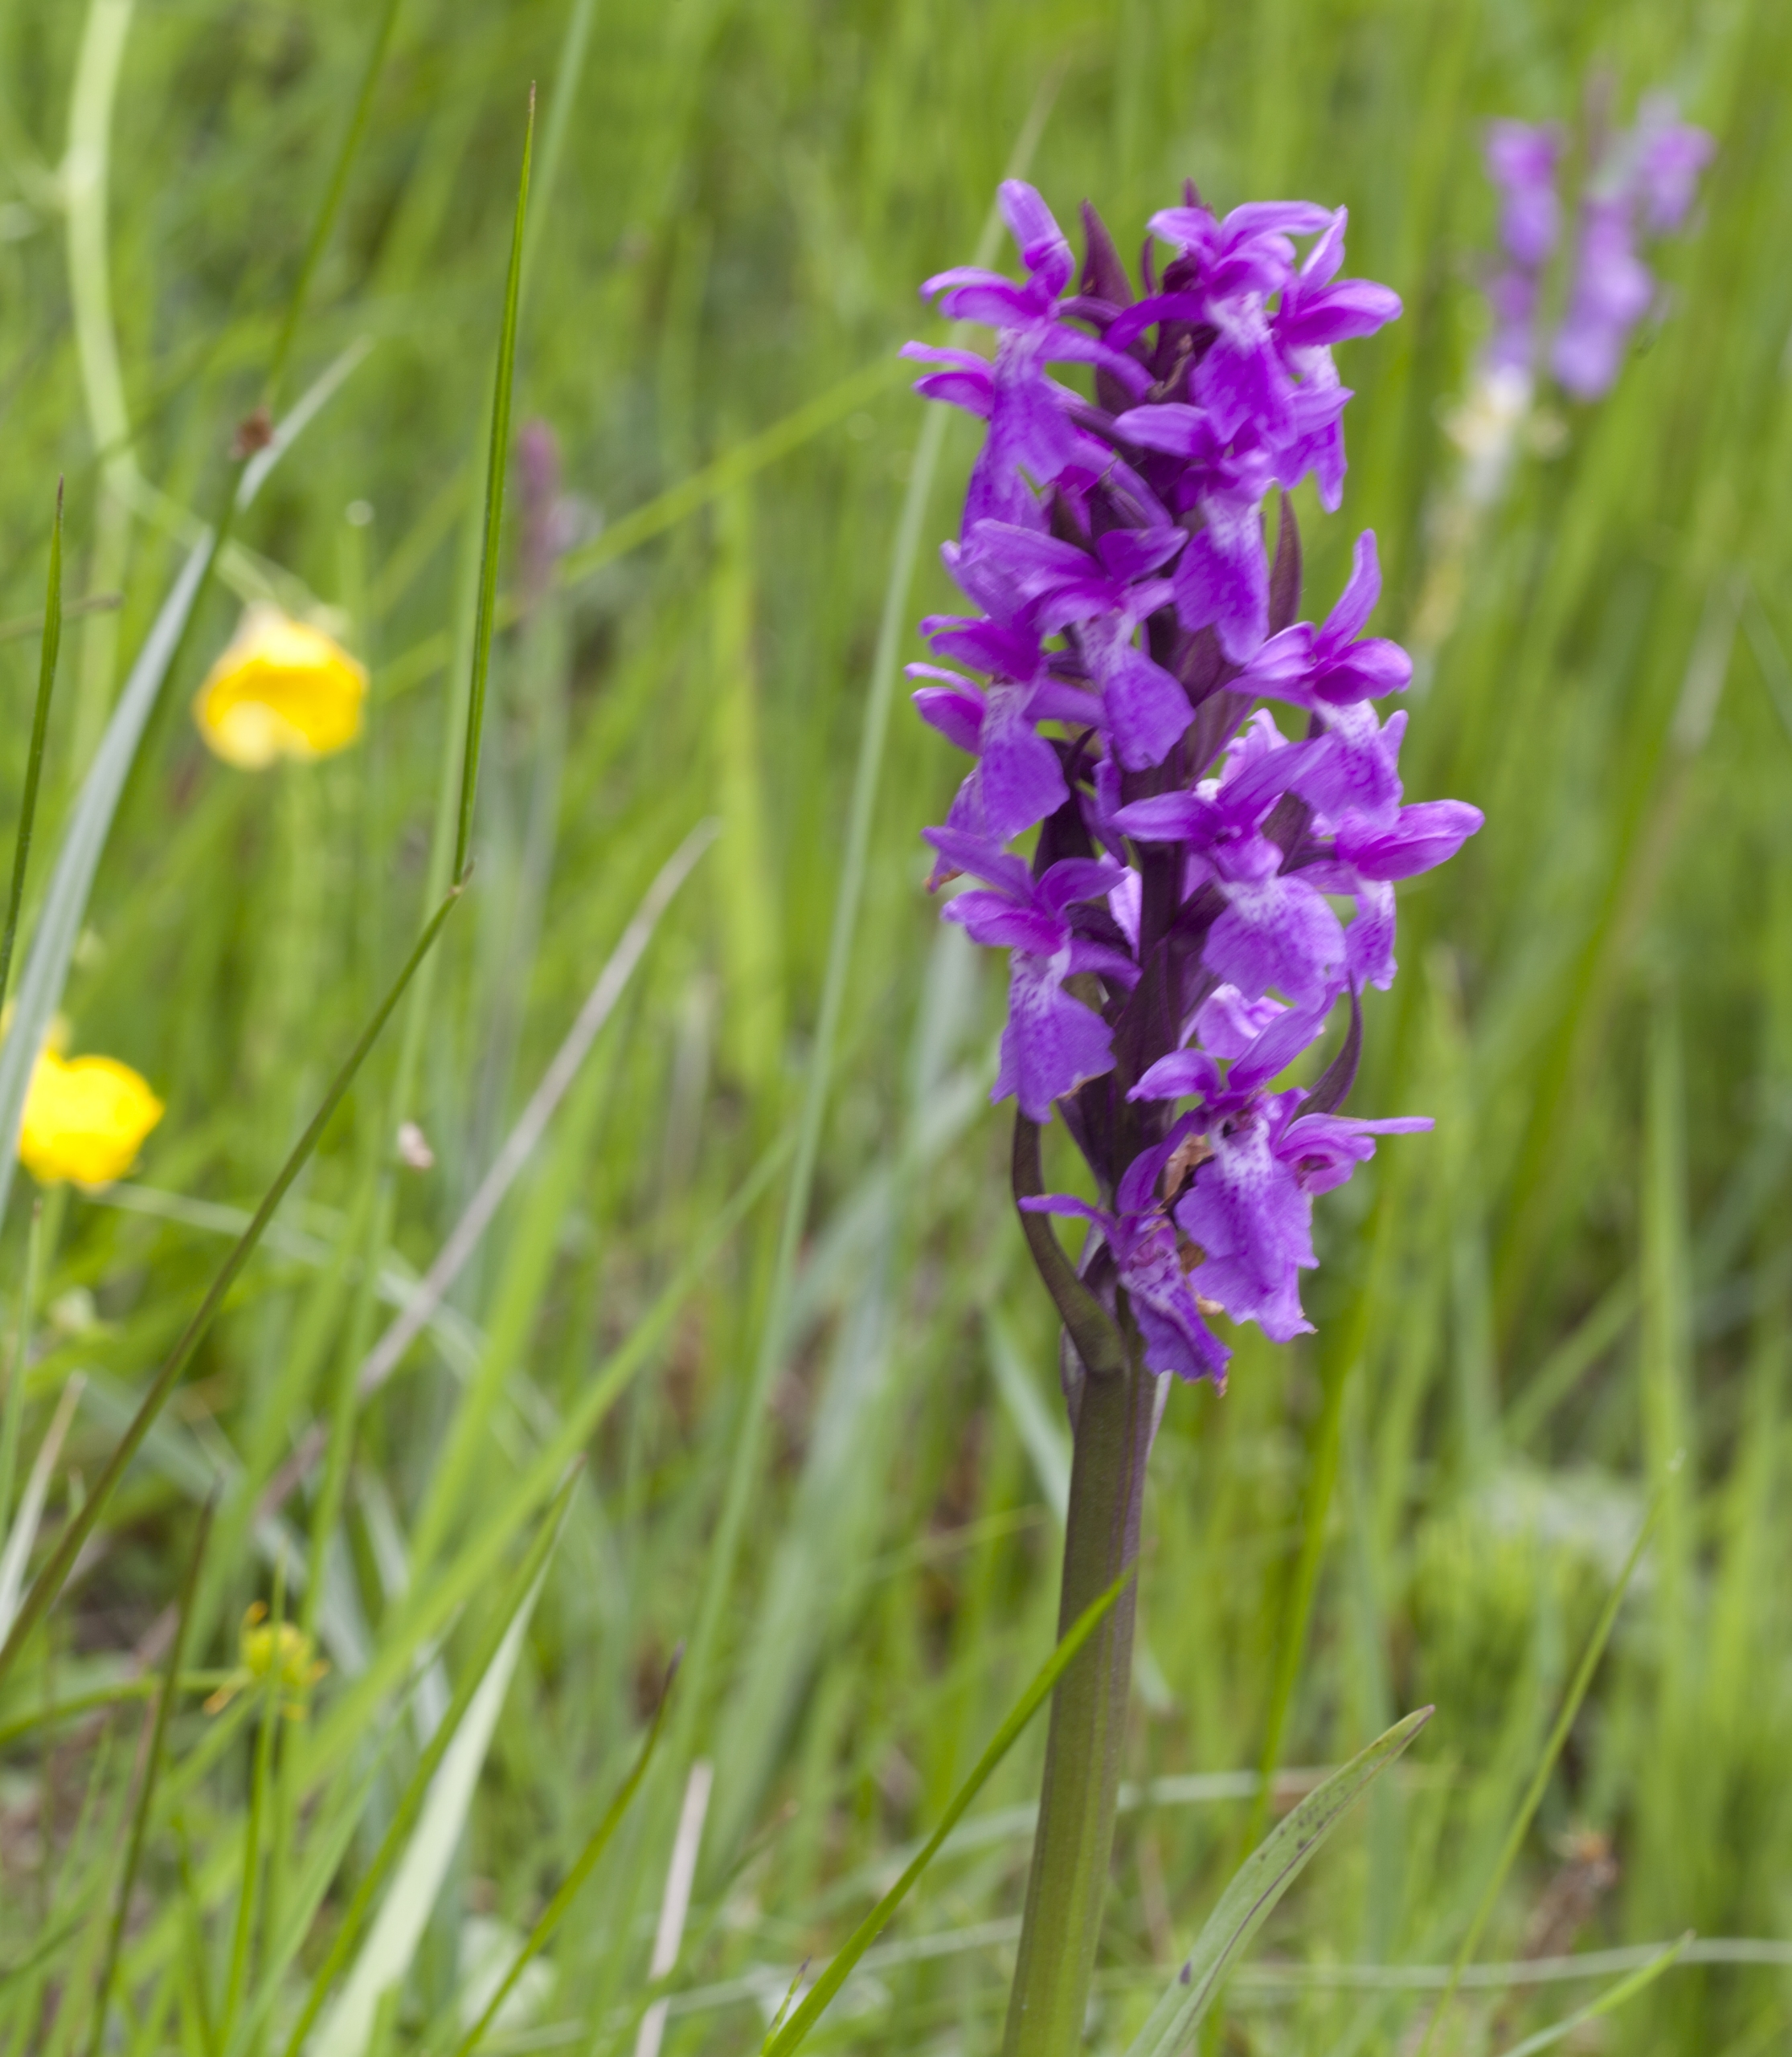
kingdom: Plantae
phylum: Tracheophyta
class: Liliopsida
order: Asparagales
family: Orchidaceae
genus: Dactylorhiza
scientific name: Dactylorhiza majalis
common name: Maj-gøgeurt
